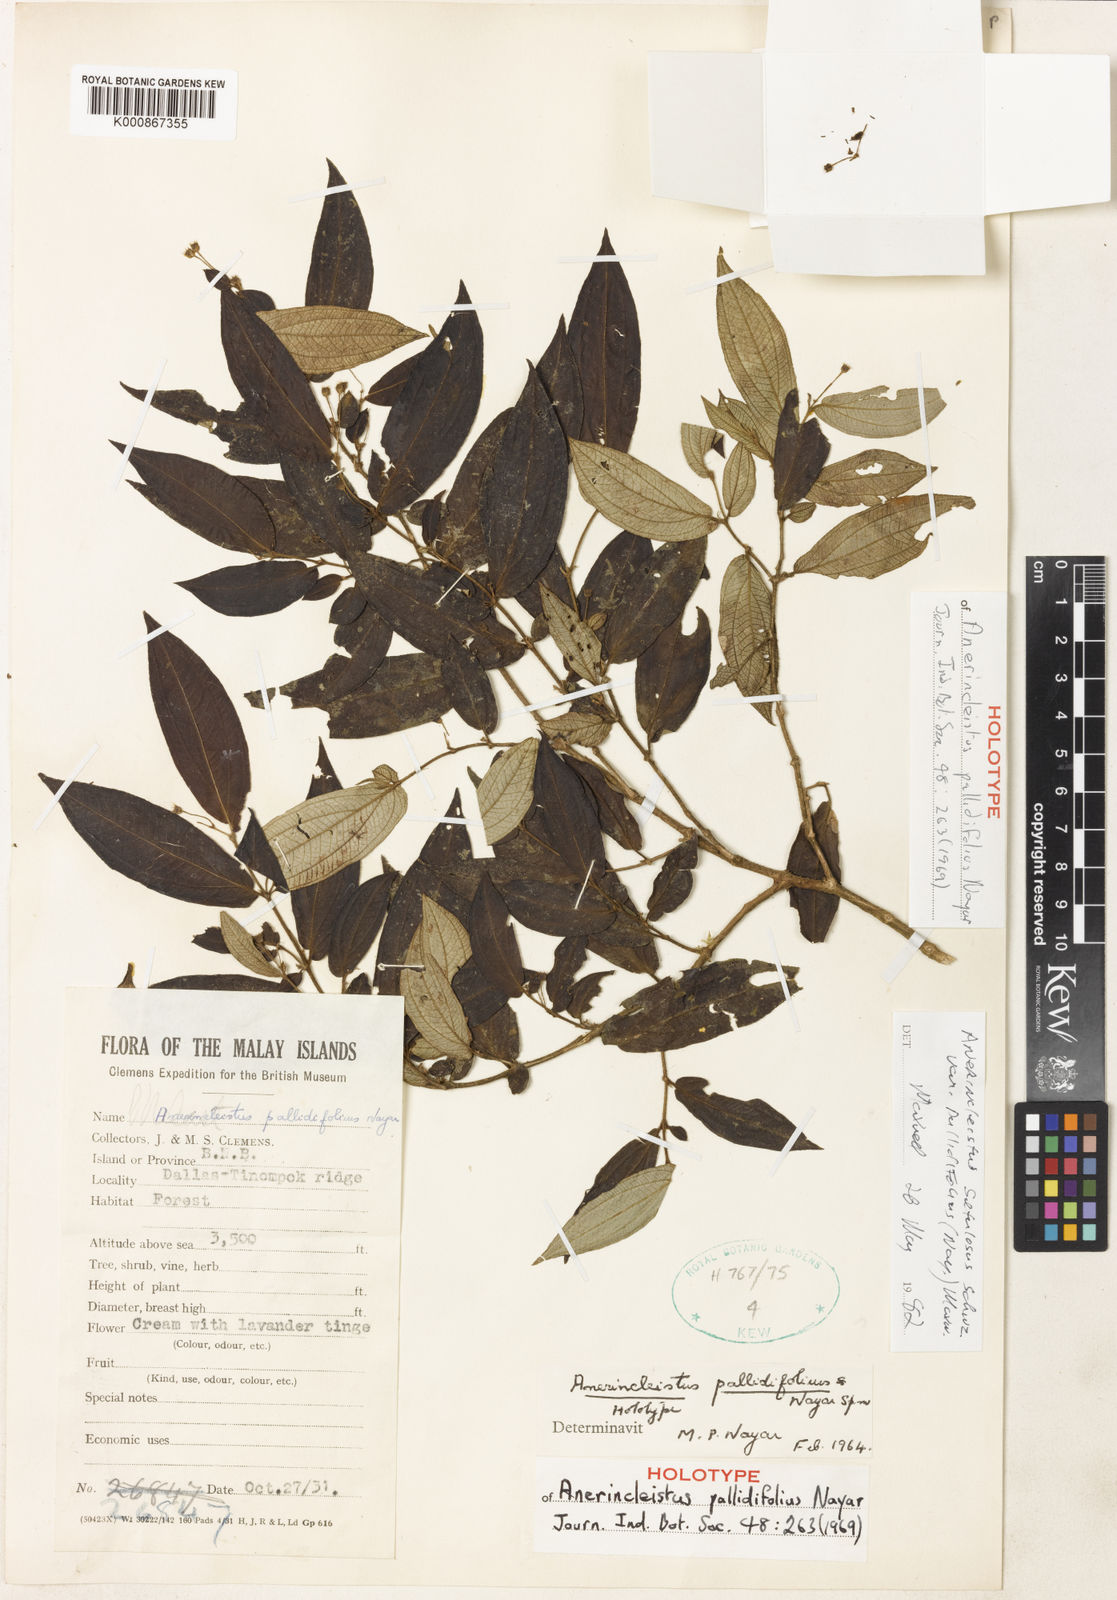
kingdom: Plantae
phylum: Tracheophyta
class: Magnoliopsida
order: Myrtales
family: Melastomataceae
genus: Anerincleistus
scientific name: Anerincleistus
